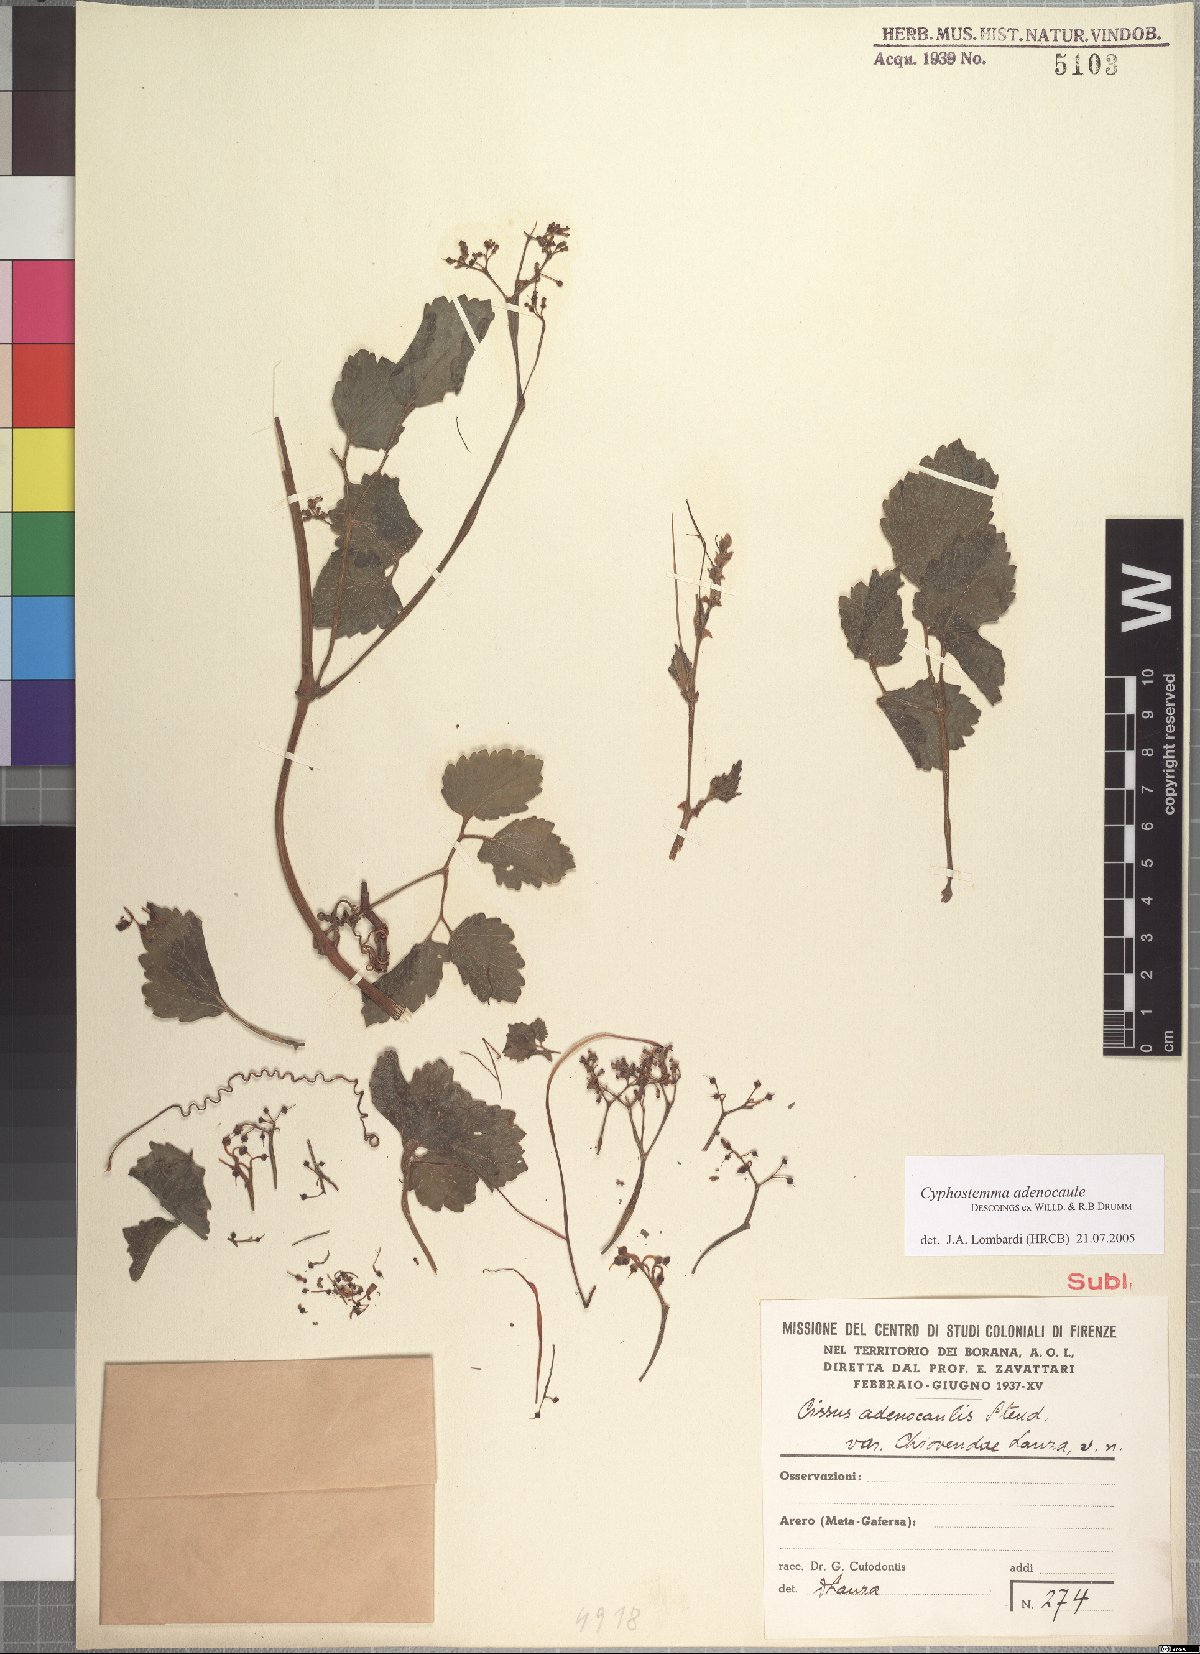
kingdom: Plantae
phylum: Tracheophyta
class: Magnoliopsida
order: Vitales
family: Vitaceae
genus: Cyphostemma
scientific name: Cyphostemma adenocaule
